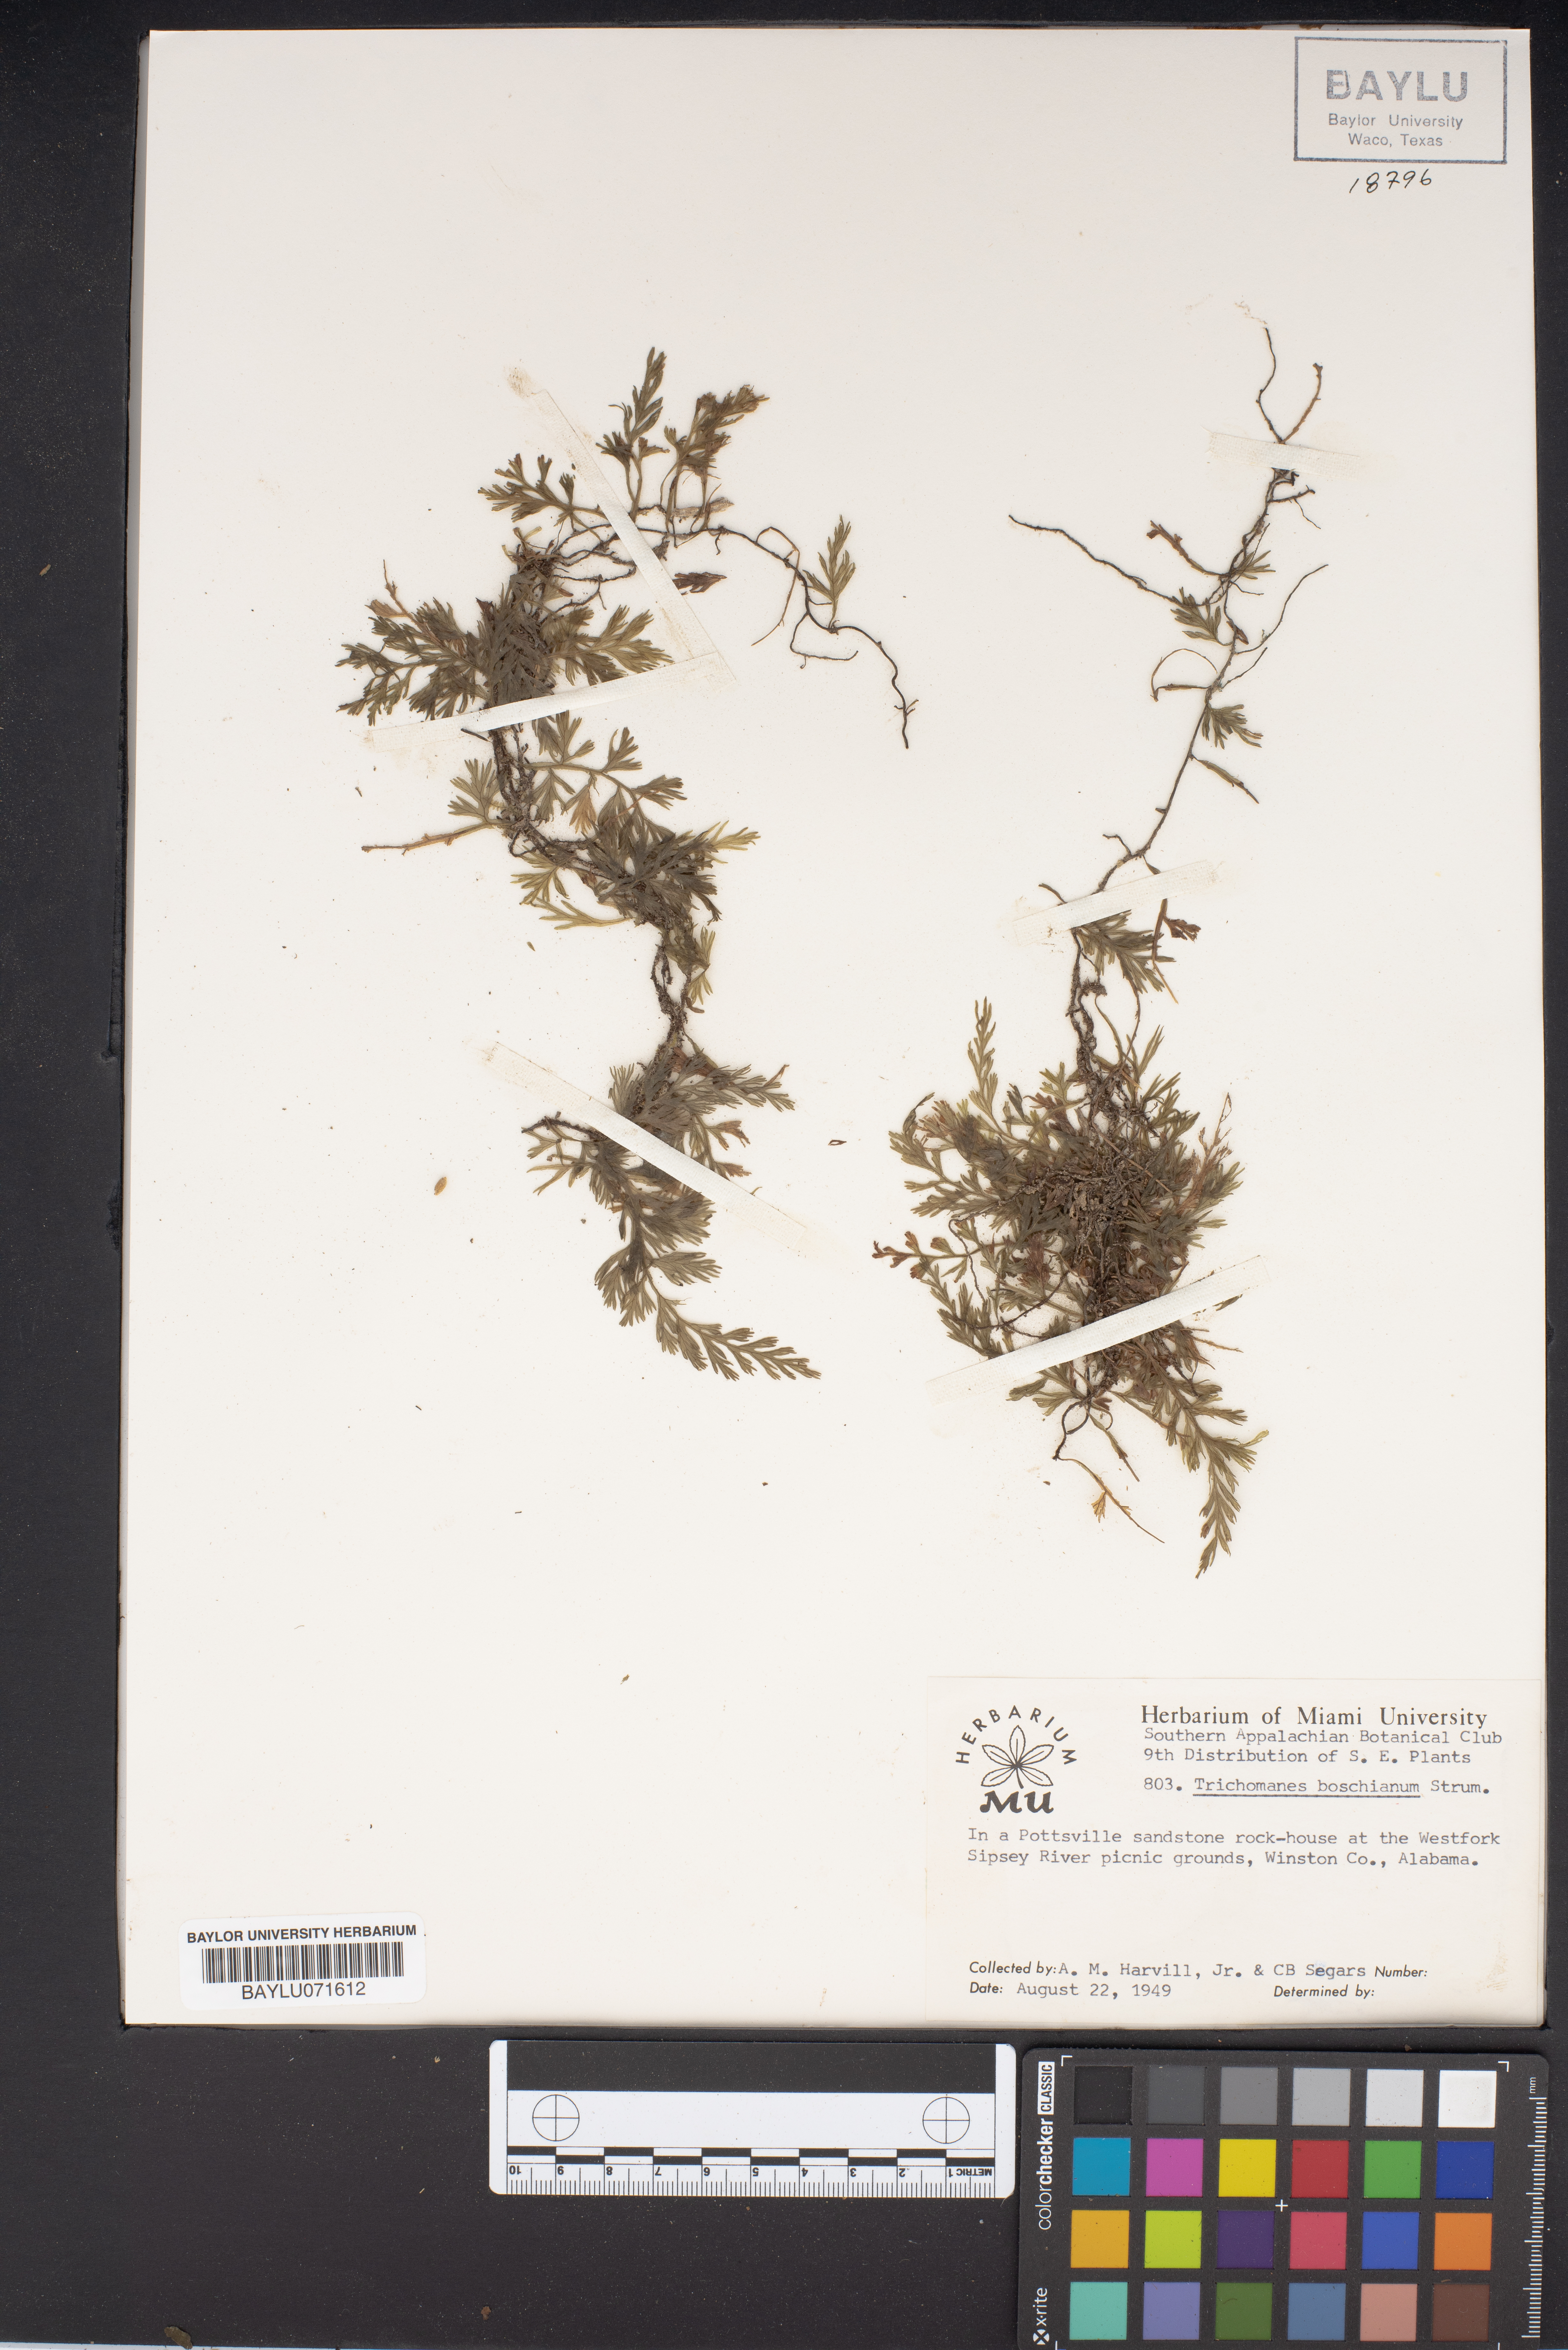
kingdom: Plantae
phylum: Tracheophyta
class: Polypodiopsida
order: Hymenophyllales
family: Hymenophyllaceae
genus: Vandenboschia
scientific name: Vandenboschia boschiana
